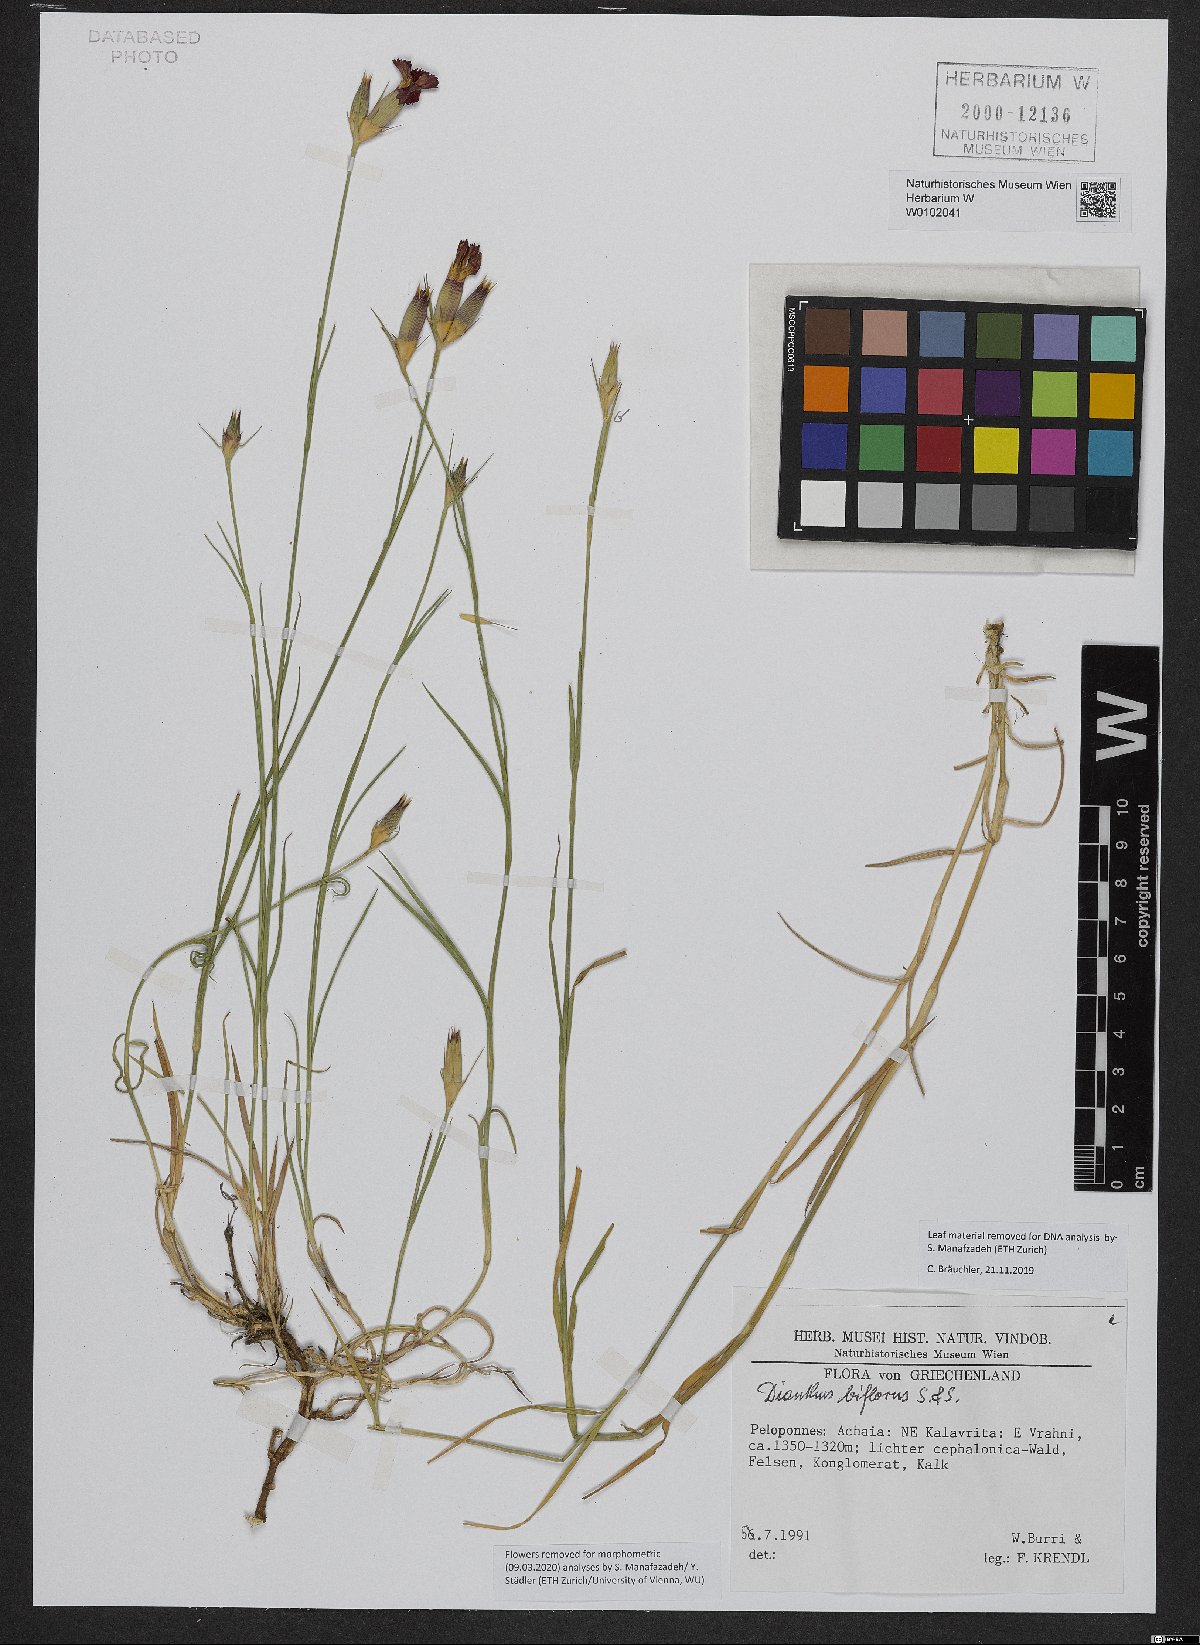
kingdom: Plantae
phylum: Tracheophyta
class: Magnoliopsida
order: Caryophyllales
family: Caryophyllaceae
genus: Dianthus
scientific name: Dianthus biflorus
